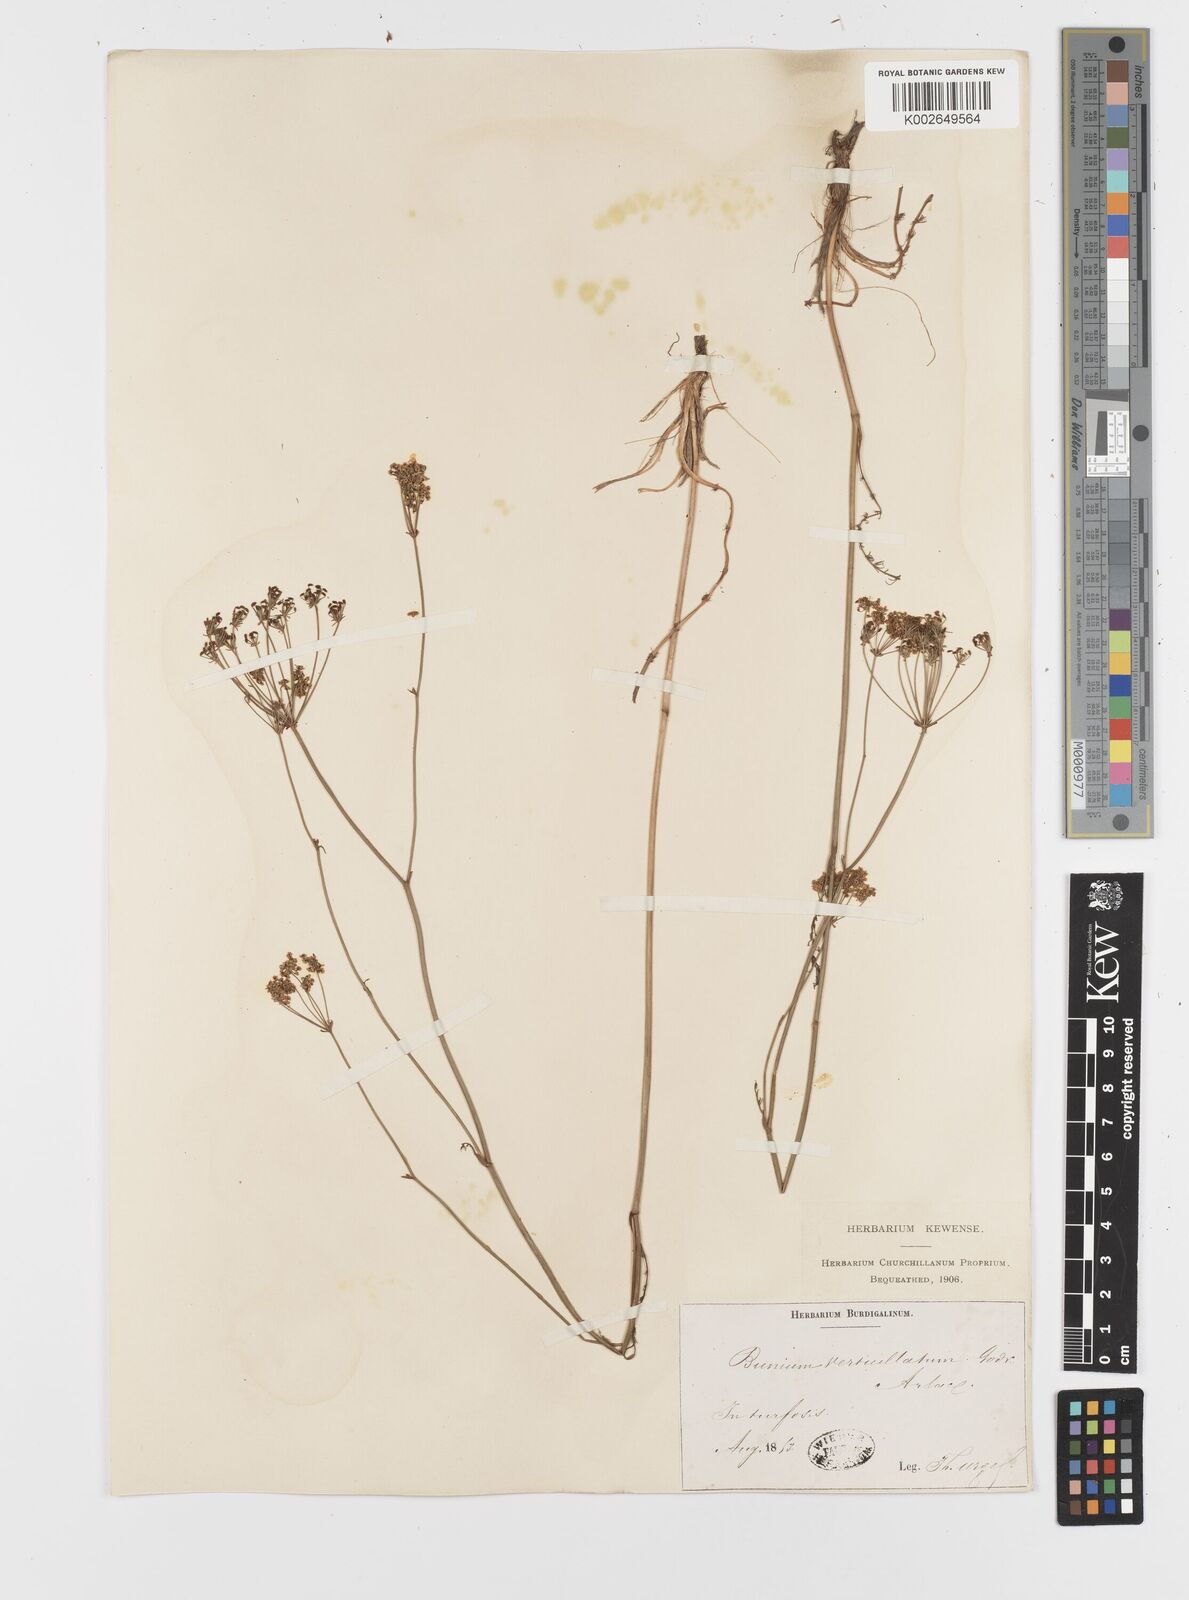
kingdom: Plantae
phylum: Tracheophyta
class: Magnoliopsida
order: Apiales
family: Apiaceae
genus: Trocdaris
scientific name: Trocdaris verticillatum
